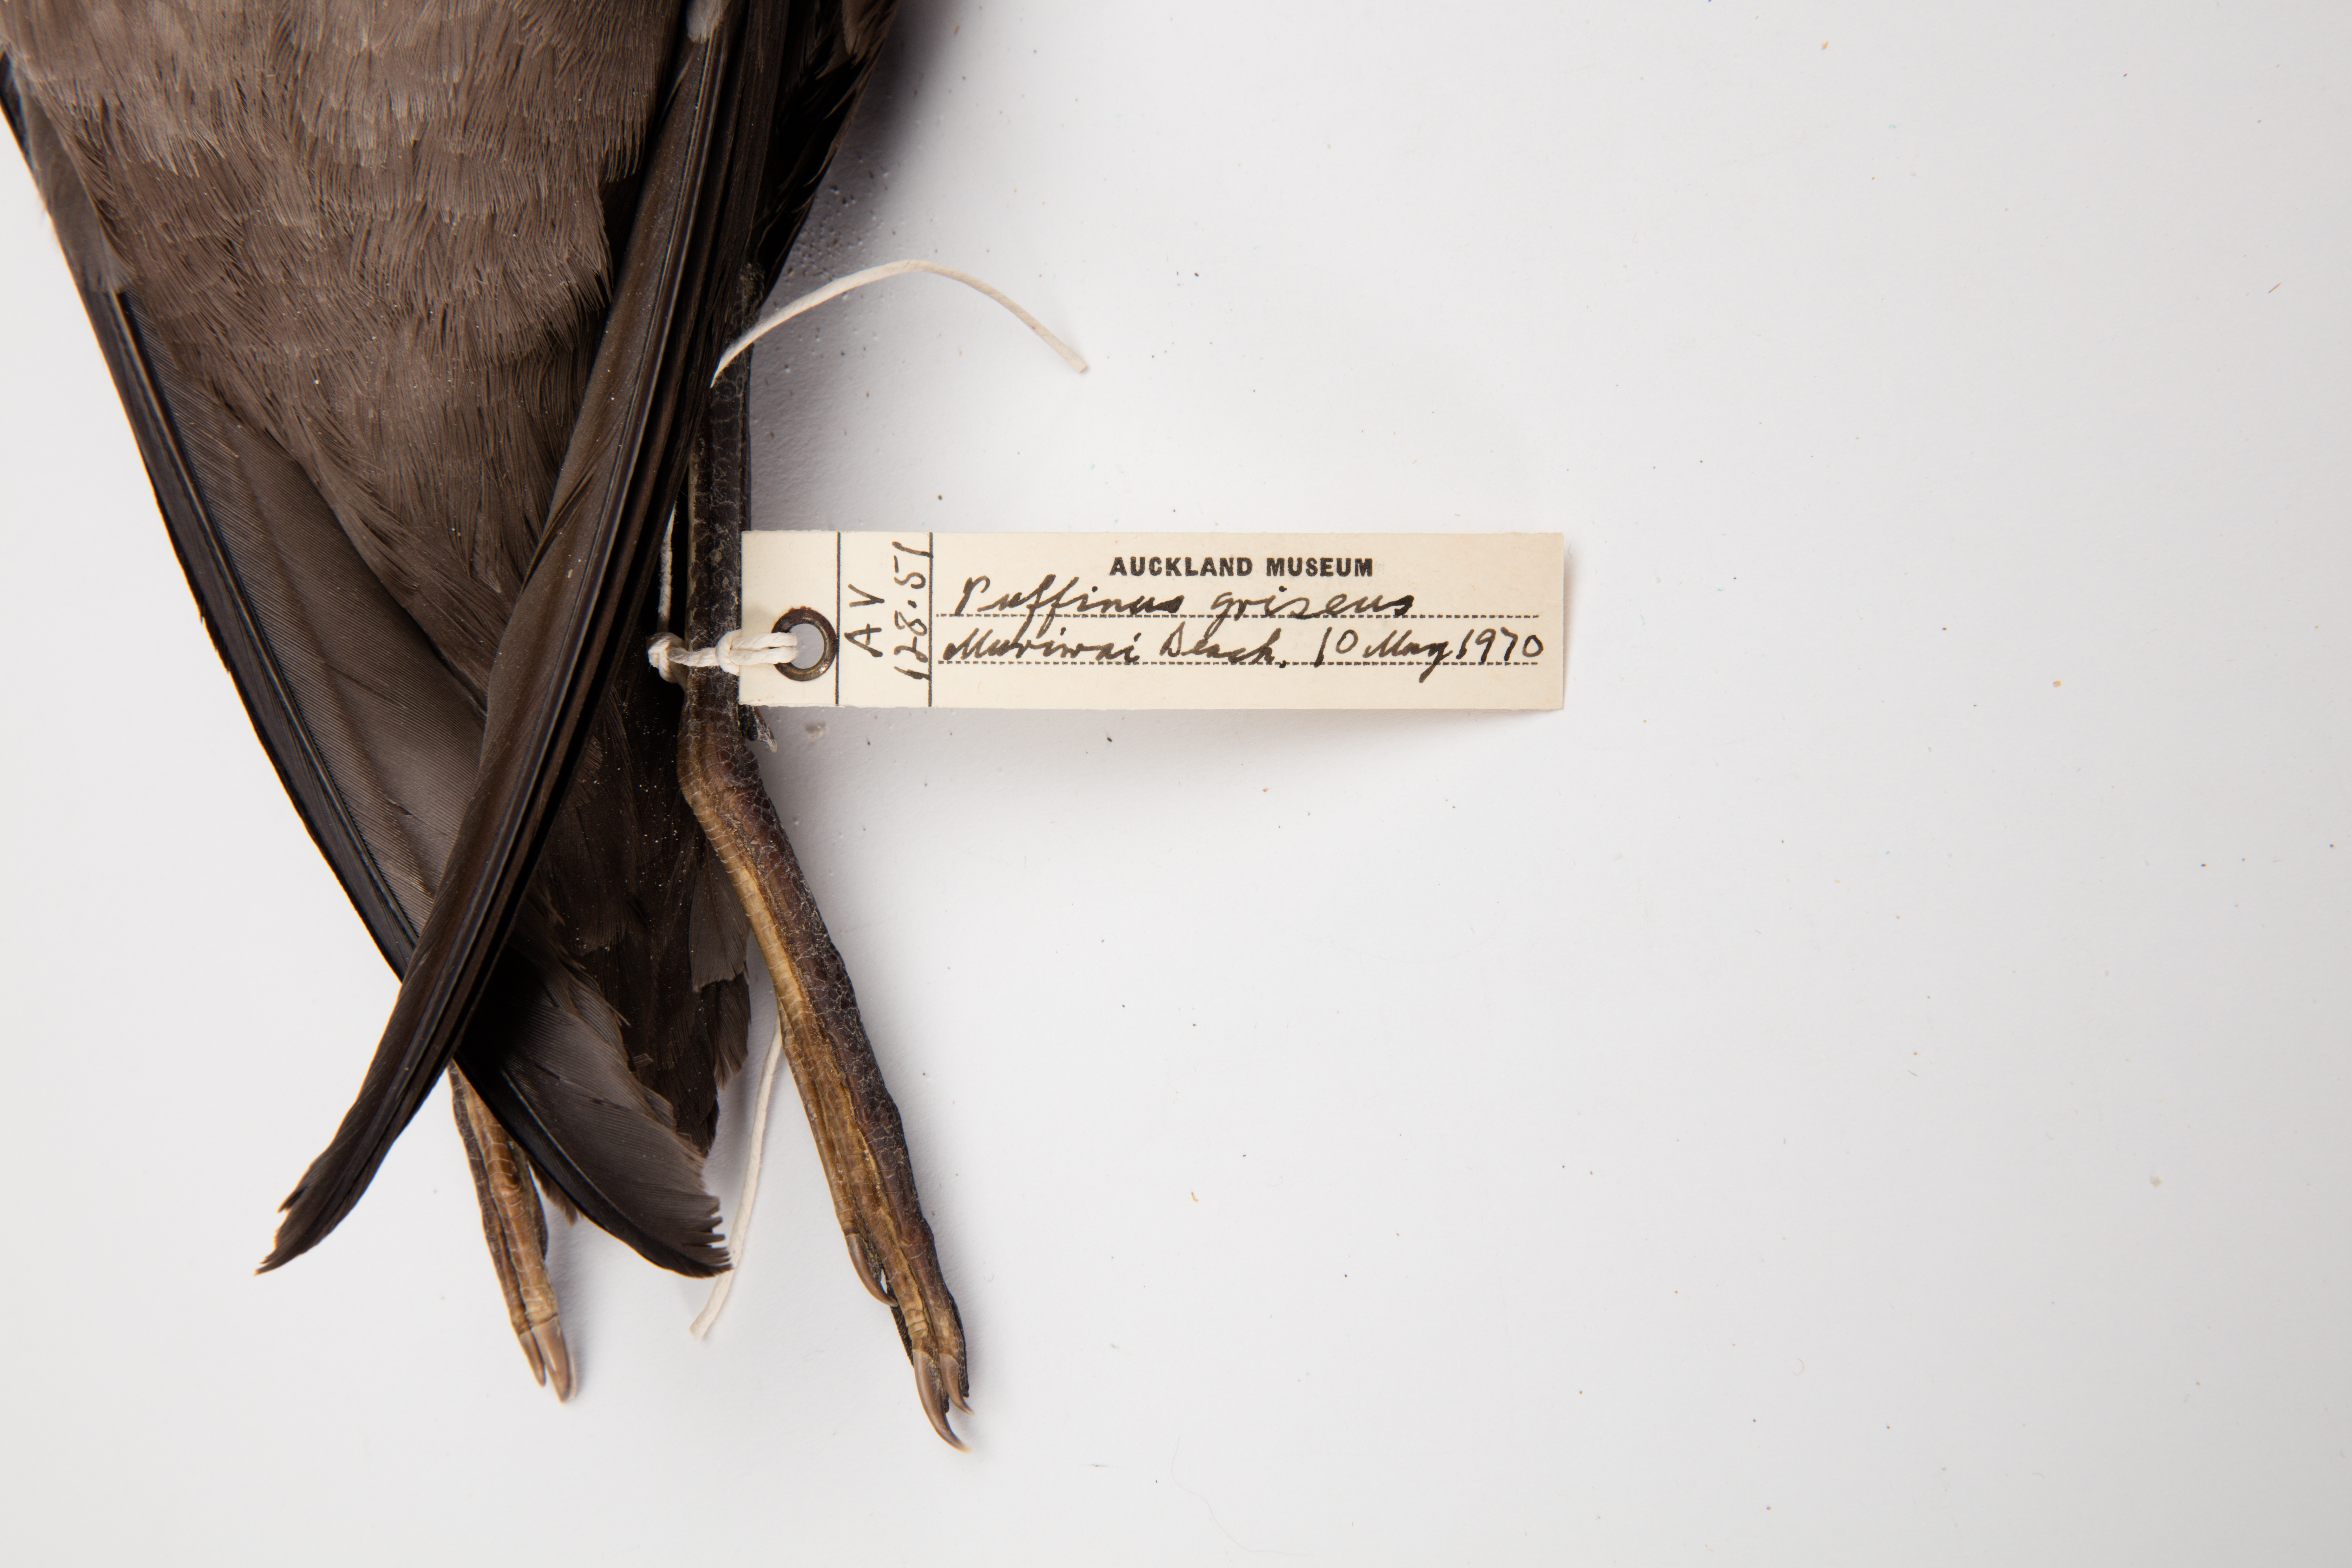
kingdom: Animalia
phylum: Chordata
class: Aves
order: Procellariiformes
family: Procellariidae
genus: Puffinus
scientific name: Puffinus griseus
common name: Sooty shearwater
